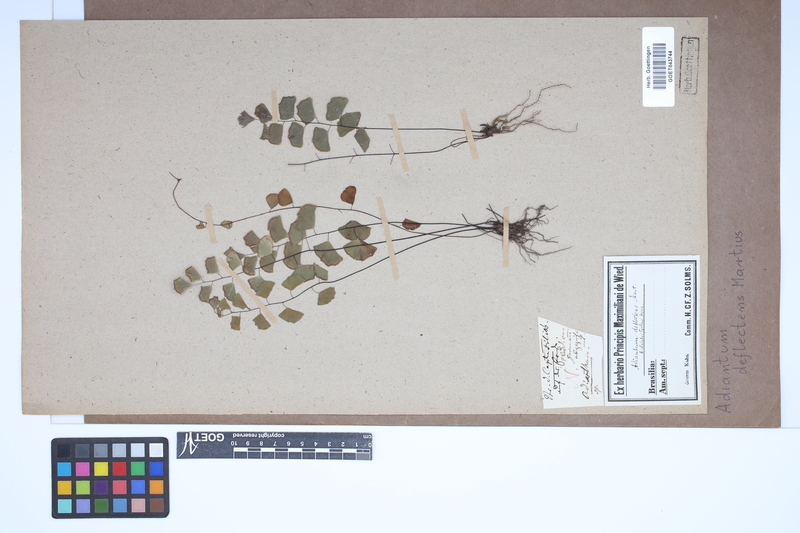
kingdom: Plantae
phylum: Tracheophyta
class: Polypodiopsida
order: Polypodiales
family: Pteridaceae
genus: Adiantum
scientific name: Adiantum deflectens
